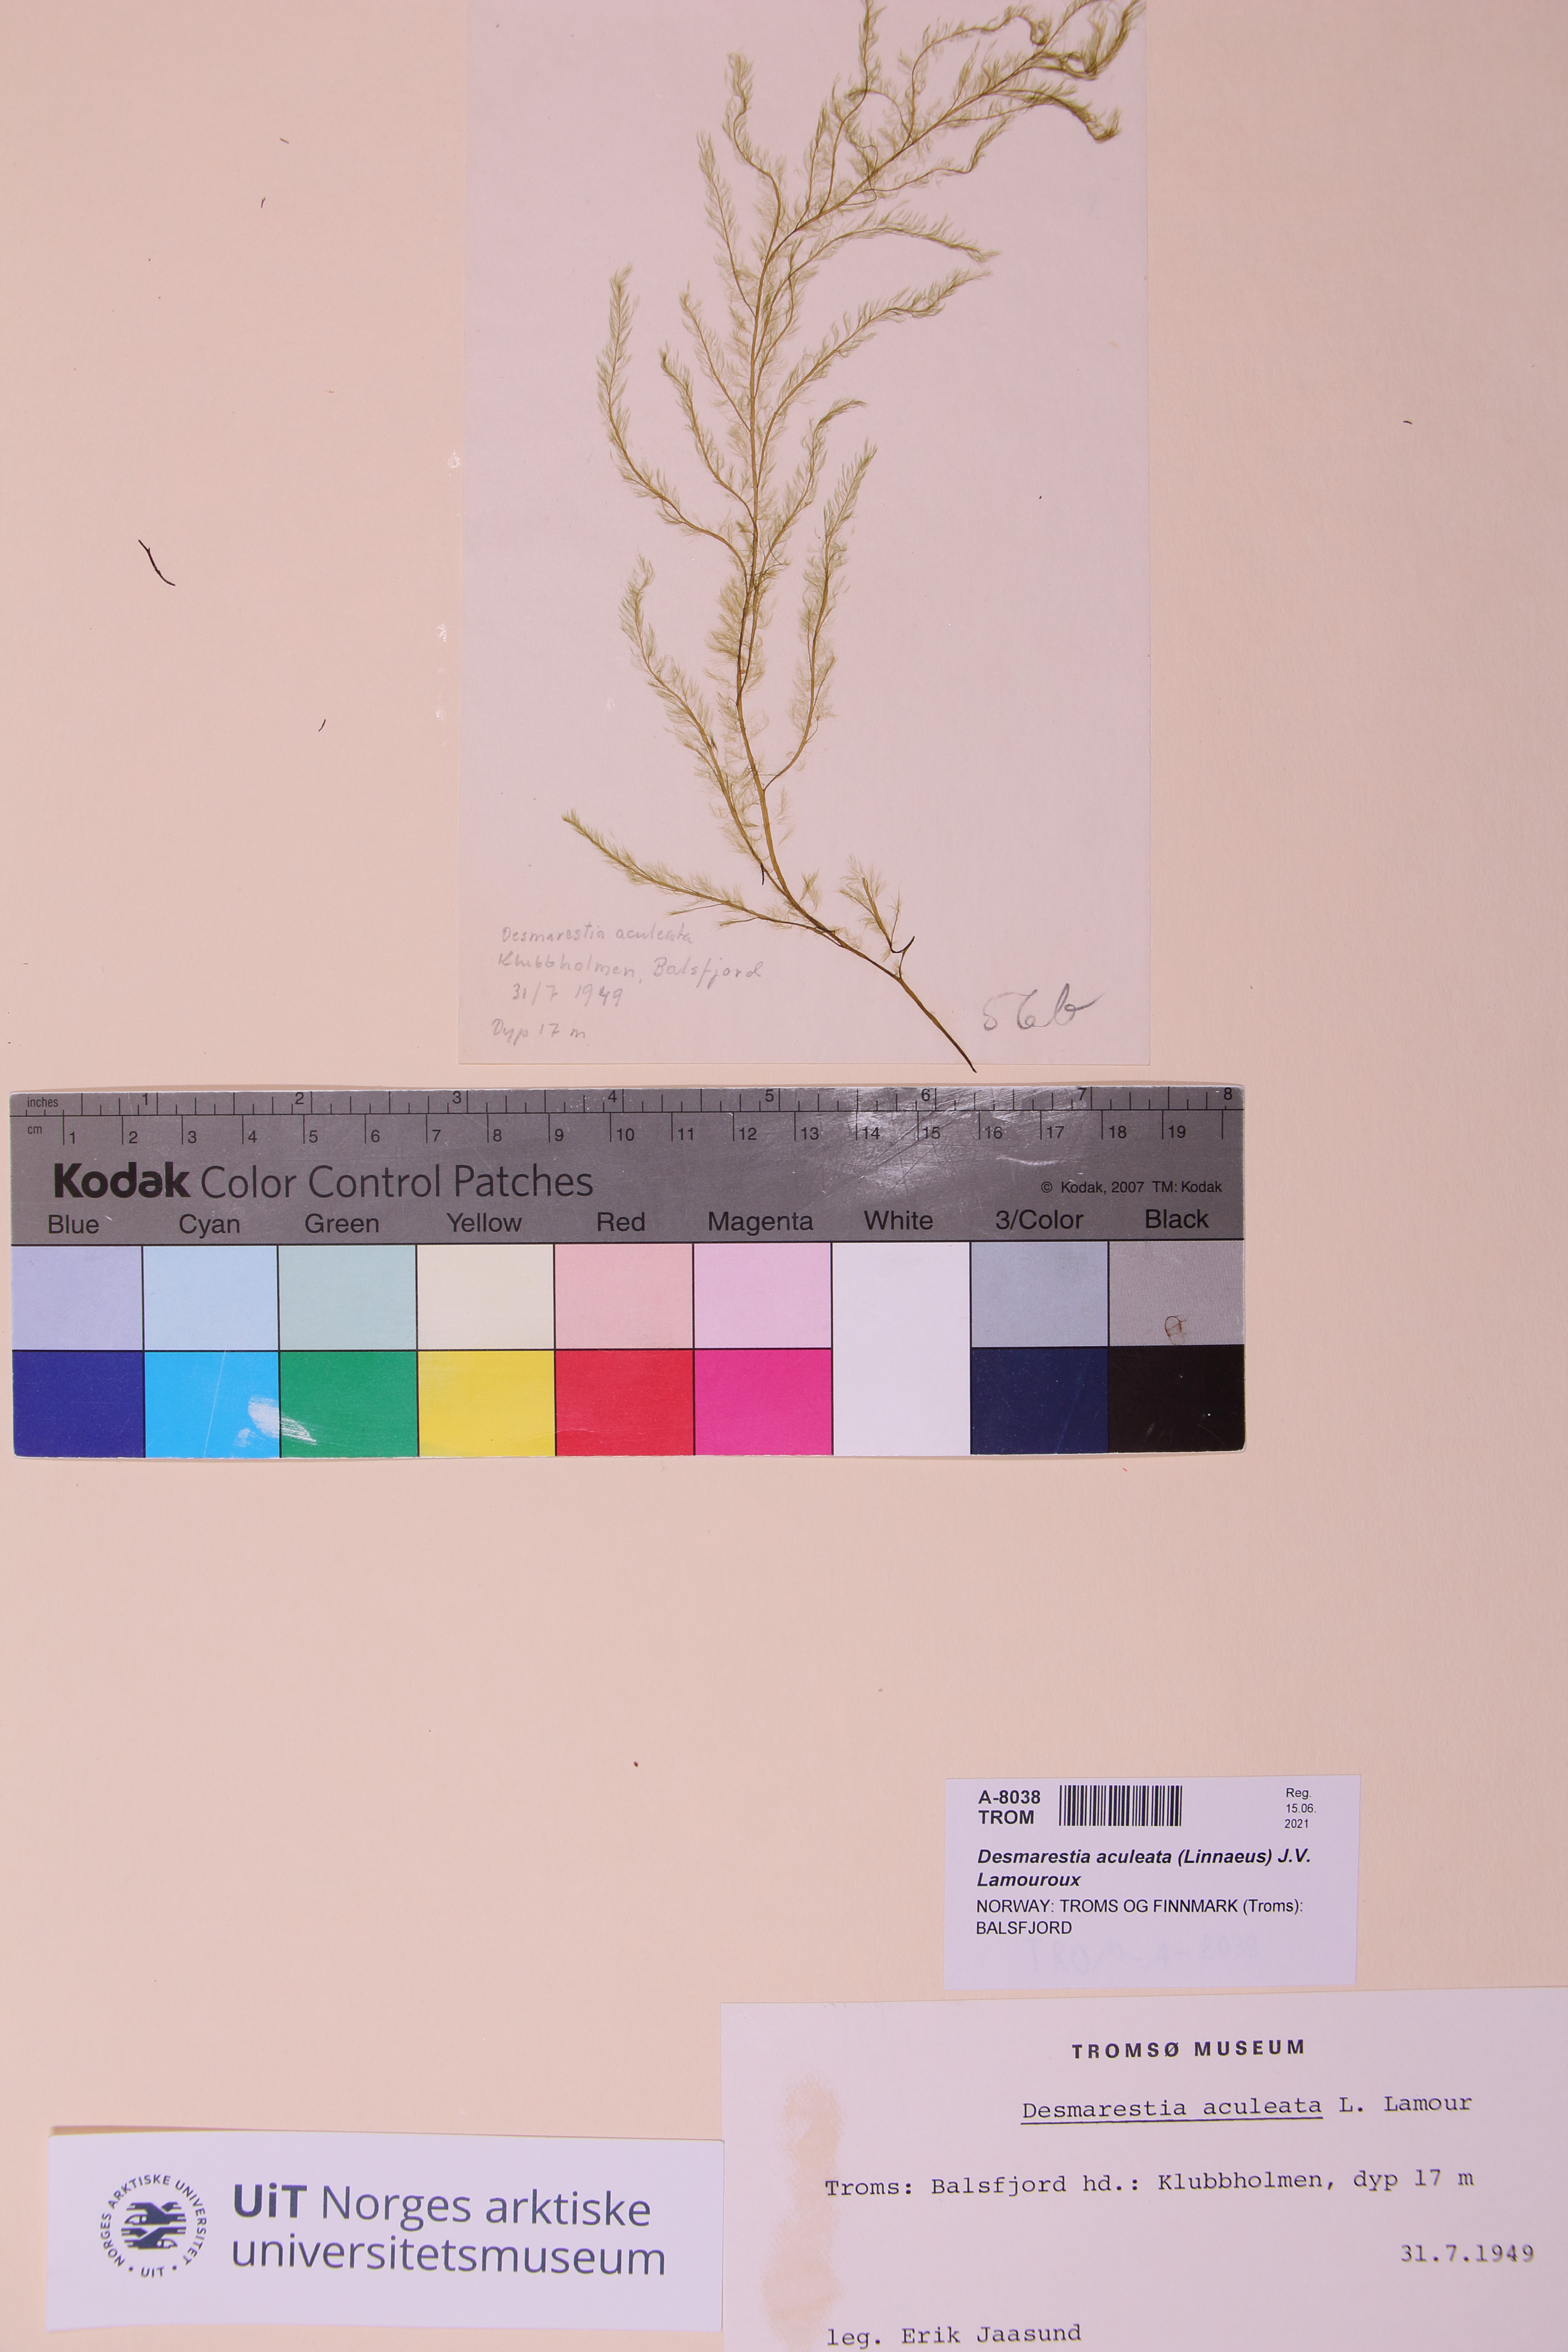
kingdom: Chromista
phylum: Ochrophyta
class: Phaeophyceae
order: Desmarestiales
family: Desmarestiaceae
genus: Desmarestia
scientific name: Desmarestia aculeata
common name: Witch's hair
